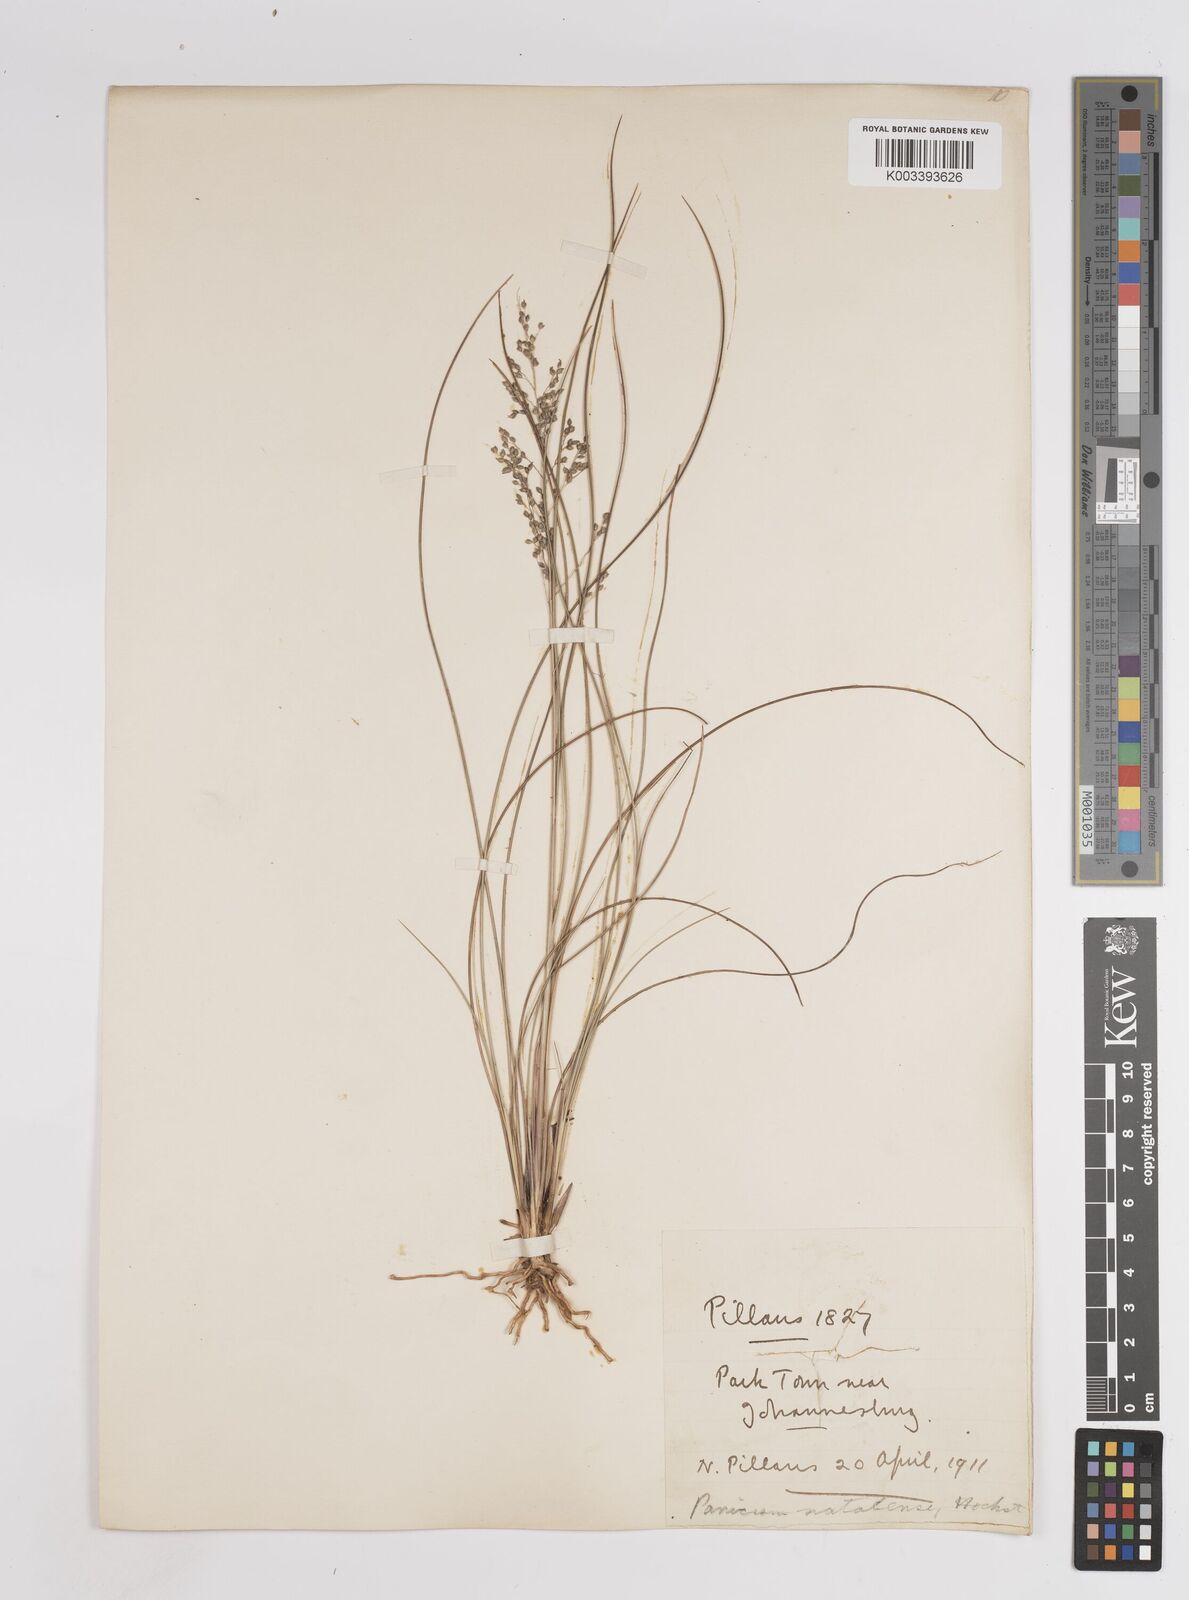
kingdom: Plantae
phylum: Tracheophyta
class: Liliopsida
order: Poales
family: Poaceae
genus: Trichanthecium
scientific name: Trichanthecium natalense
